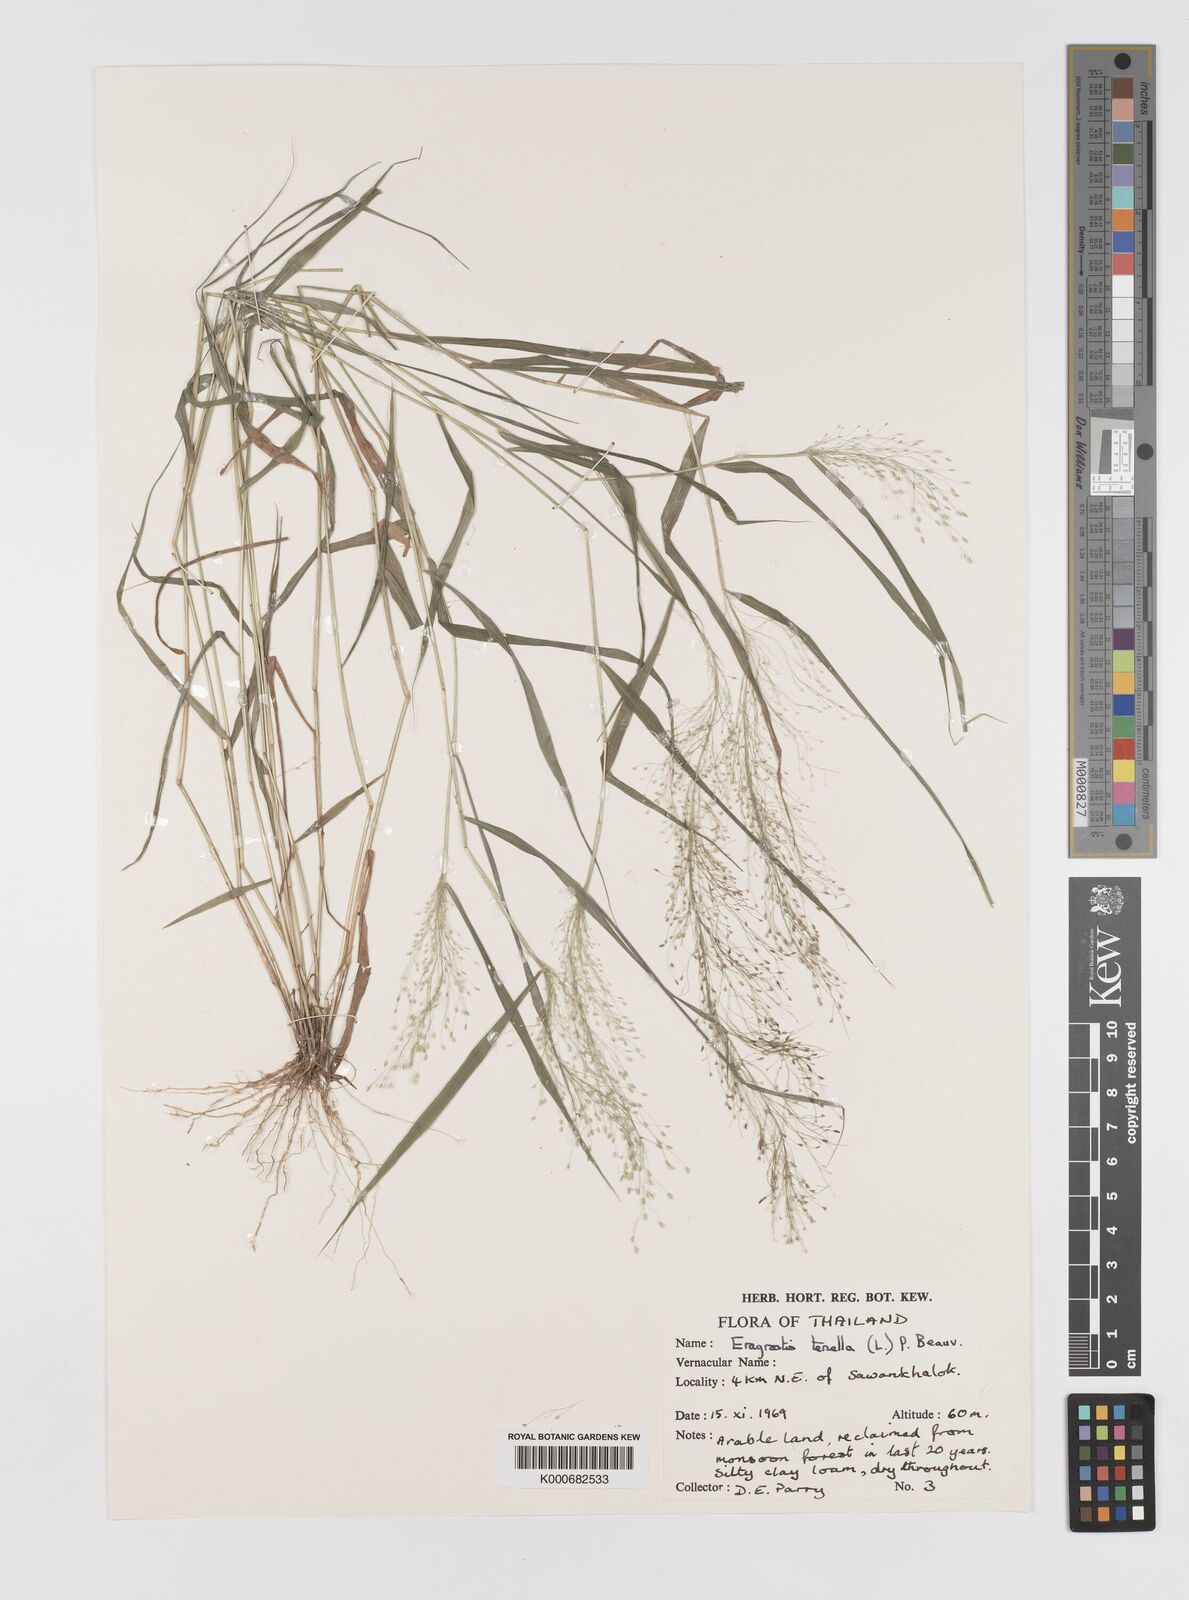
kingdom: Plantae
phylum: Tracheophyta
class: Liliopsida
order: Poales
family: Poaceae
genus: Eragrostis
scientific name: Eragrostis tenella
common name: Japanese lovegrass
